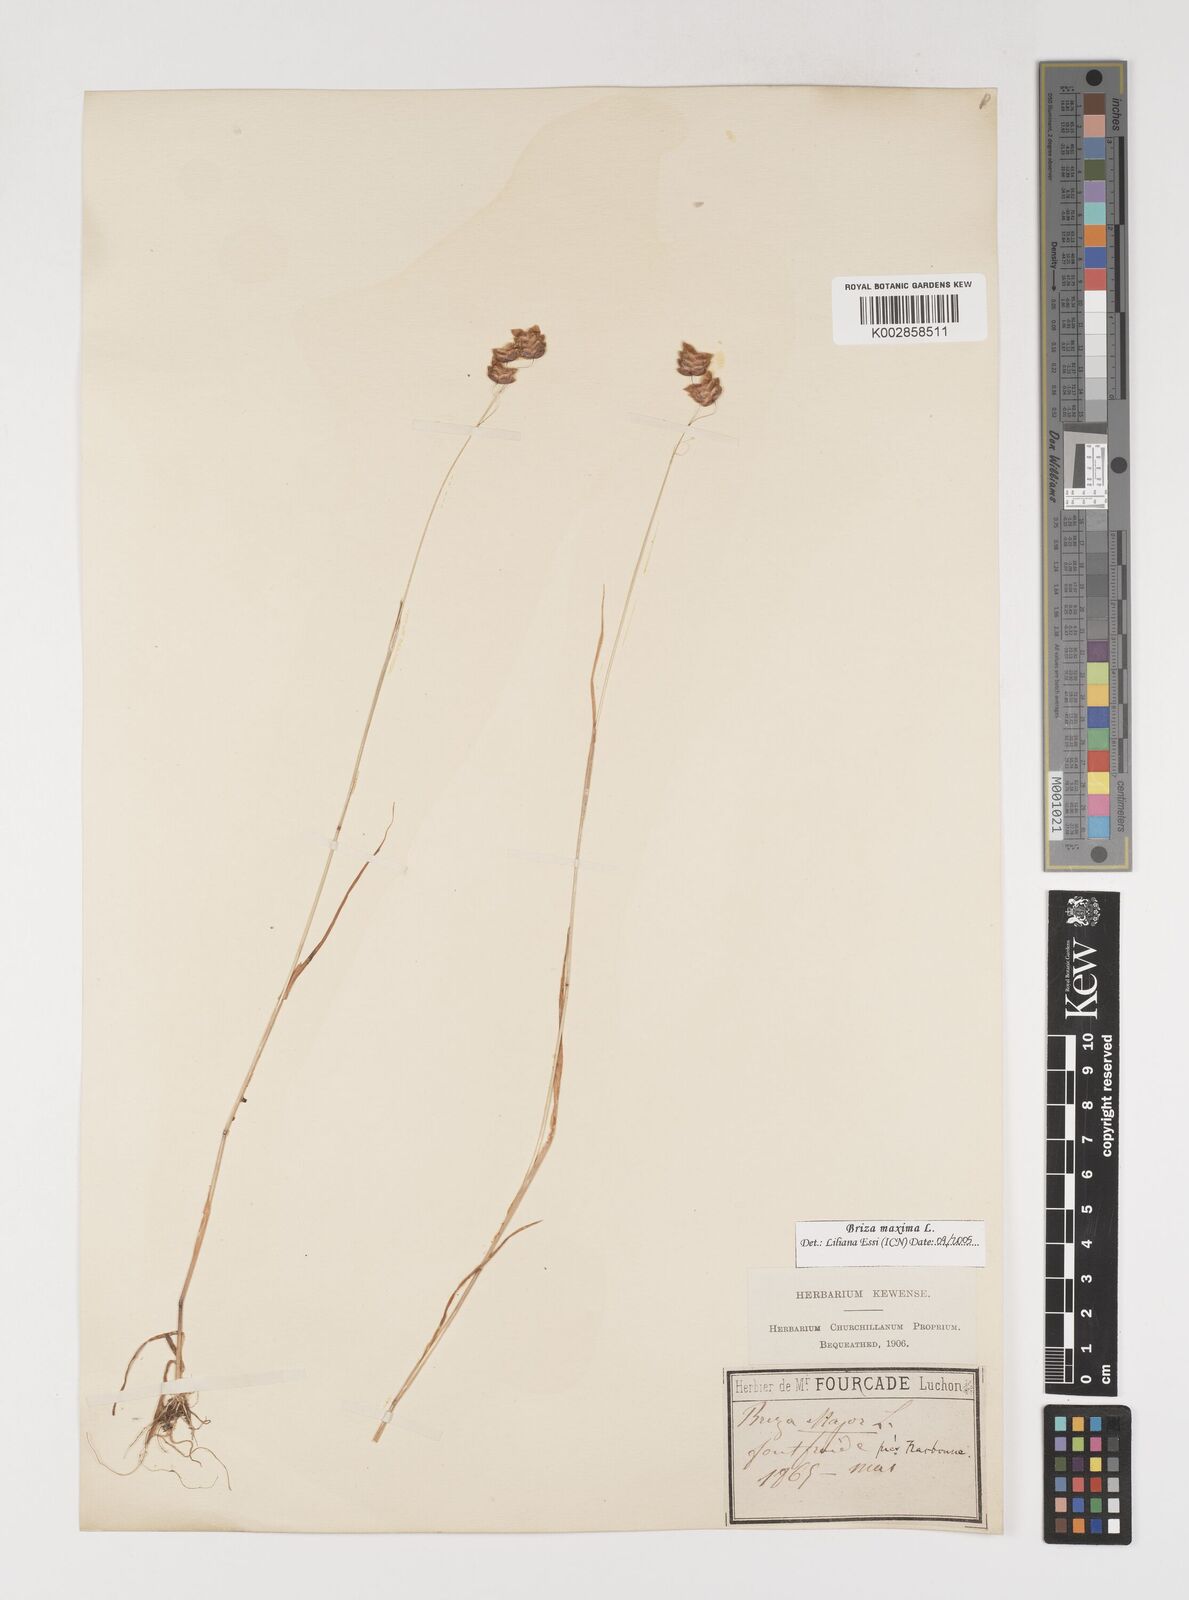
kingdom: Plantae
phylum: Tracheophyta
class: Liliopsida
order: Poales
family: Poaceae
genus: Briza
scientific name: Briza maxima
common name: Big quakinggrass
